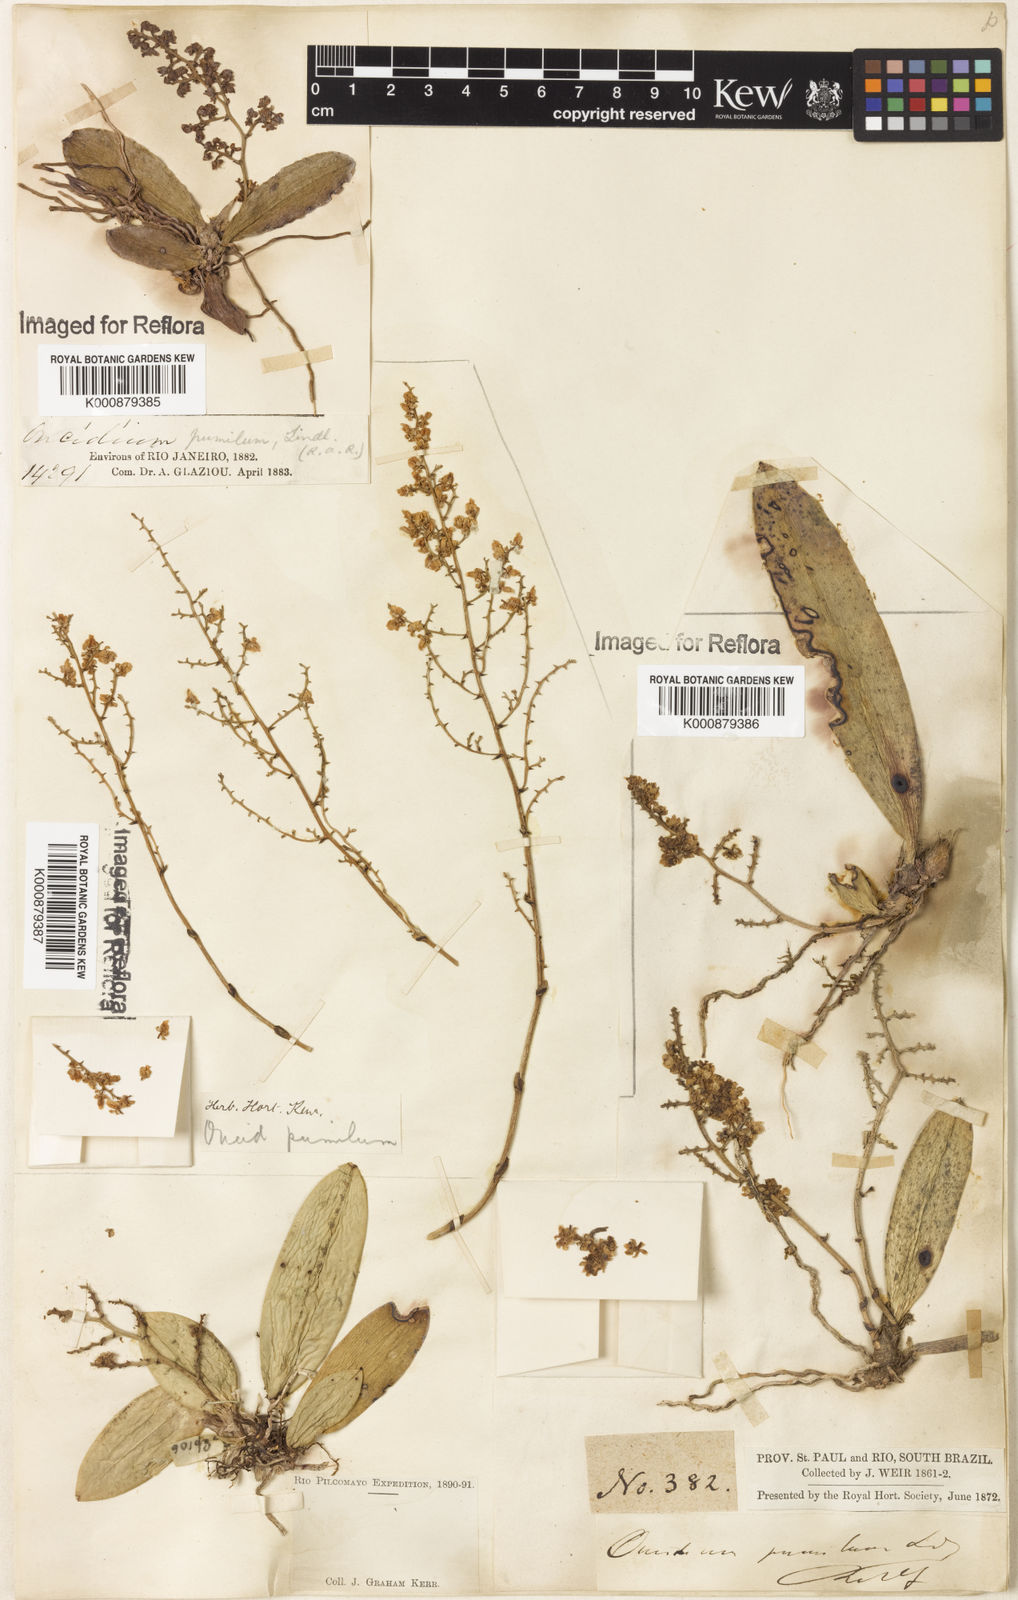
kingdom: Plantae
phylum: Tracheophyta
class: Liliopsida
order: Asparagales
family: Orchidaceae
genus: Trichocentrum
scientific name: Trichocentrum pumilum
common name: Mule-ear orchid
